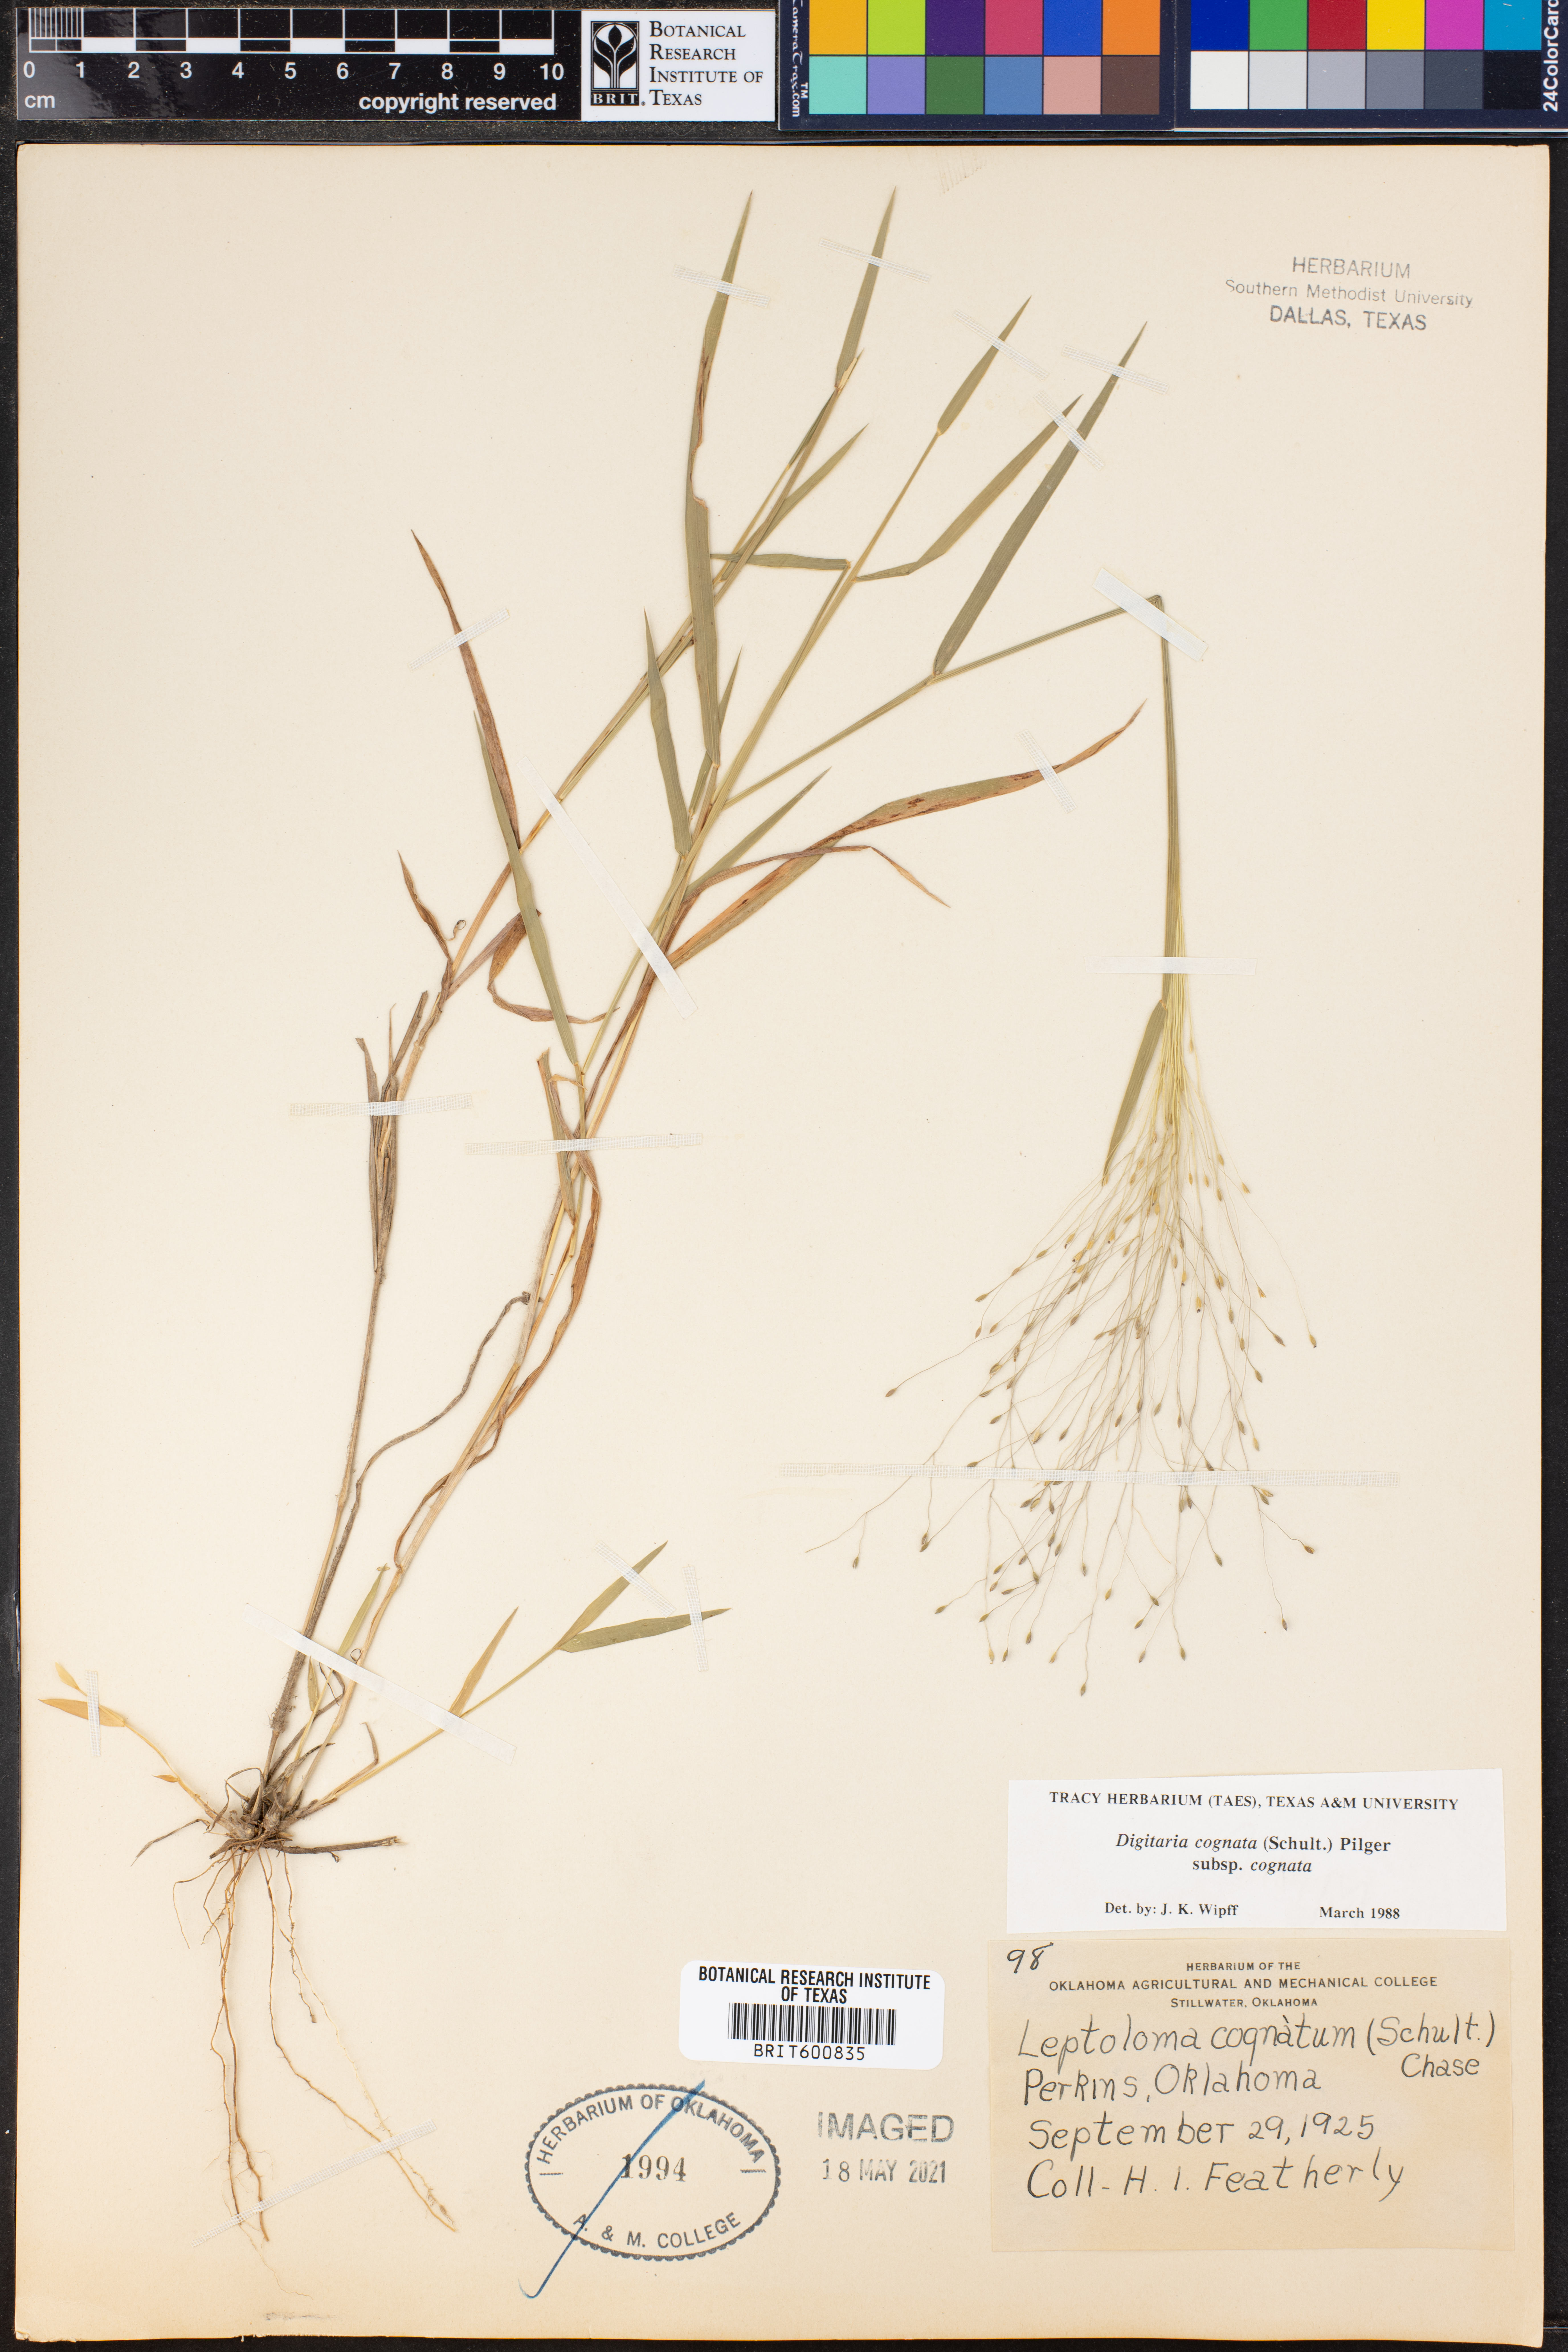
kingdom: Plantae
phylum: Tracheophyta
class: Liliopsida
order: Poales
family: Poaceae
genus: Digitaria
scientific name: Digitaria cognata
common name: Fall witchgrass
